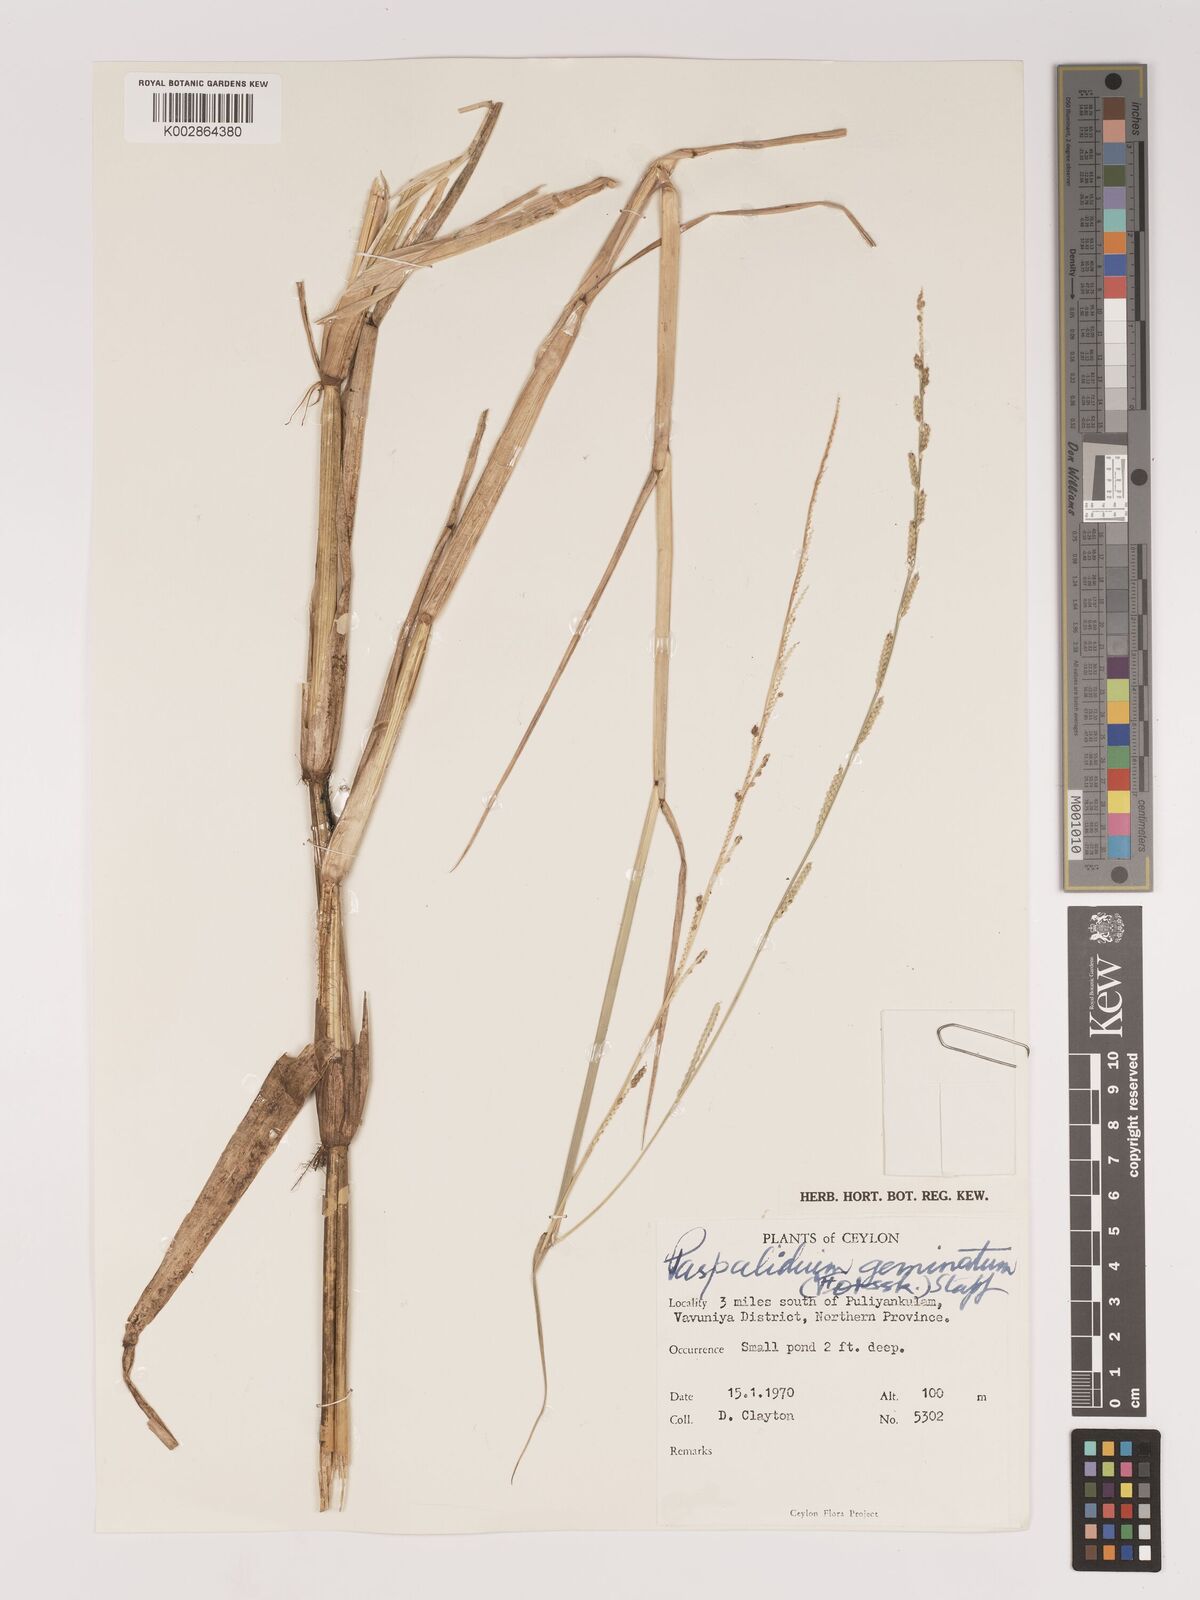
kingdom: Plantae
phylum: Tracheophyta
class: Liliopsida
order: Poales
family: Poaceae
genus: Setaria
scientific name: Setaria punctata
